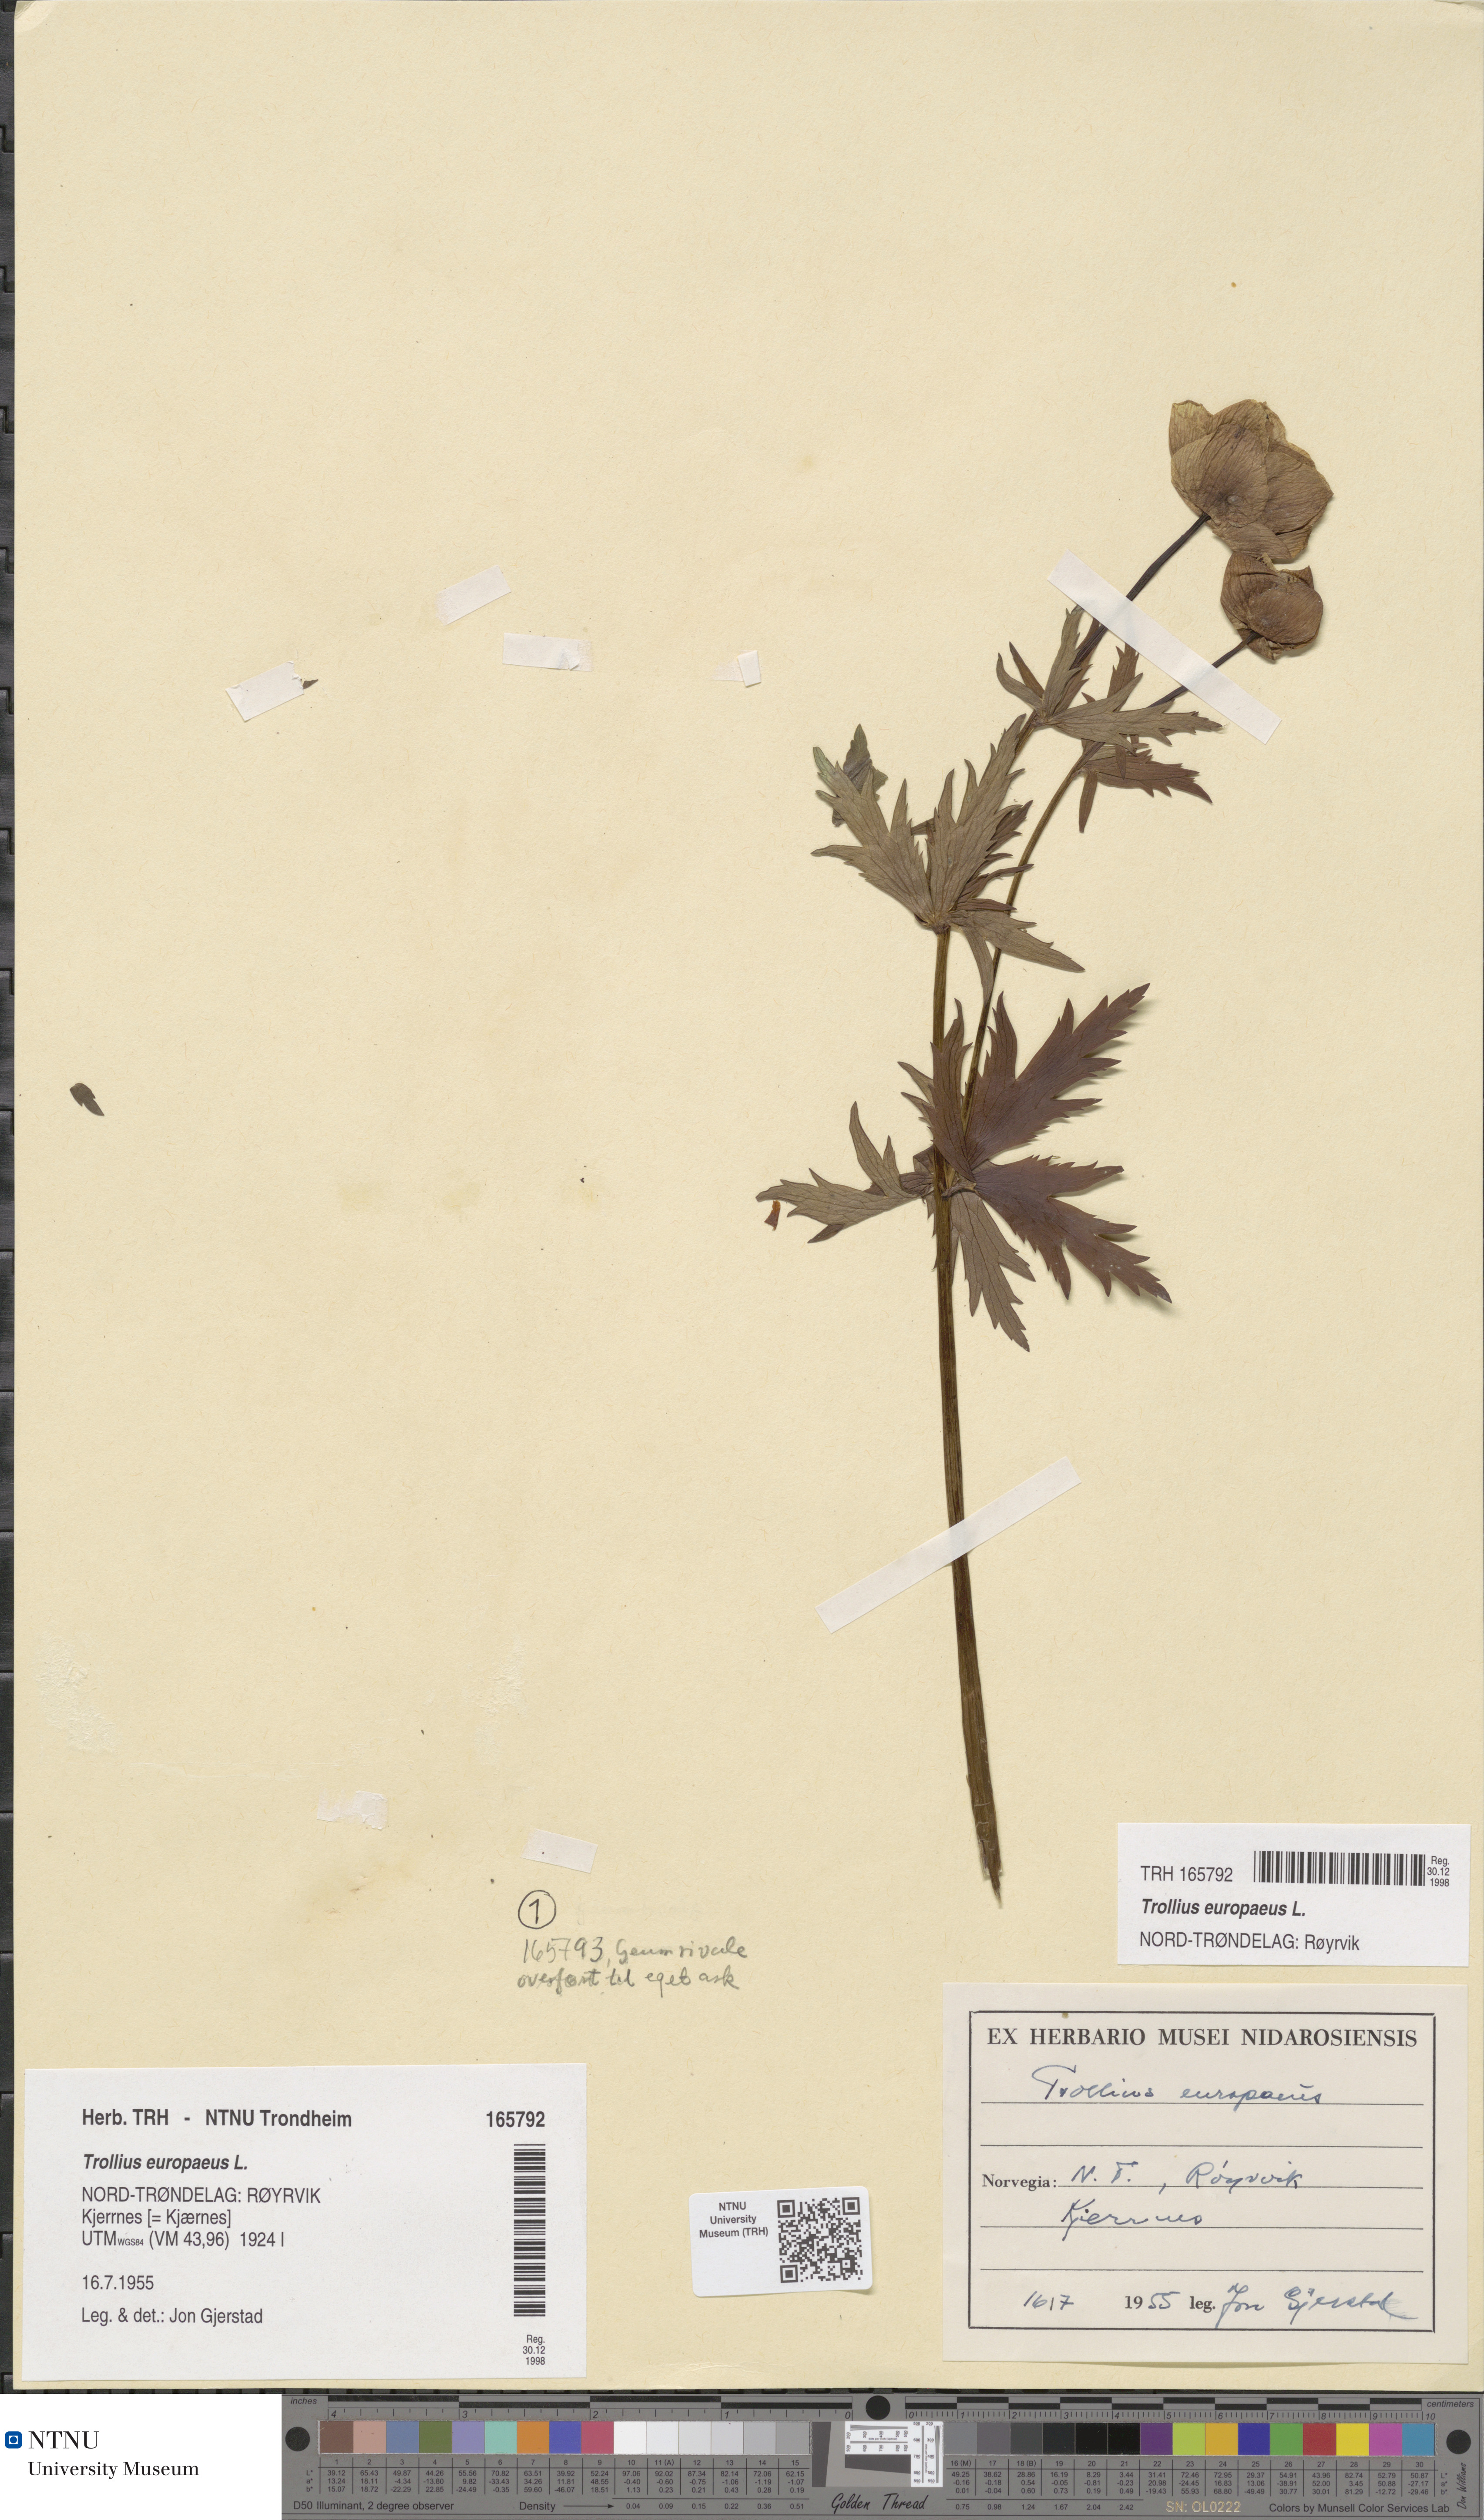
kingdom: Plantae
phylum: Tracheophyta
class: Magnoliopsida
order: Ranunculales
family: Ranunculaceae
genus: Trollius
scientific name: Trollius europaeus
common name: European globeflower
